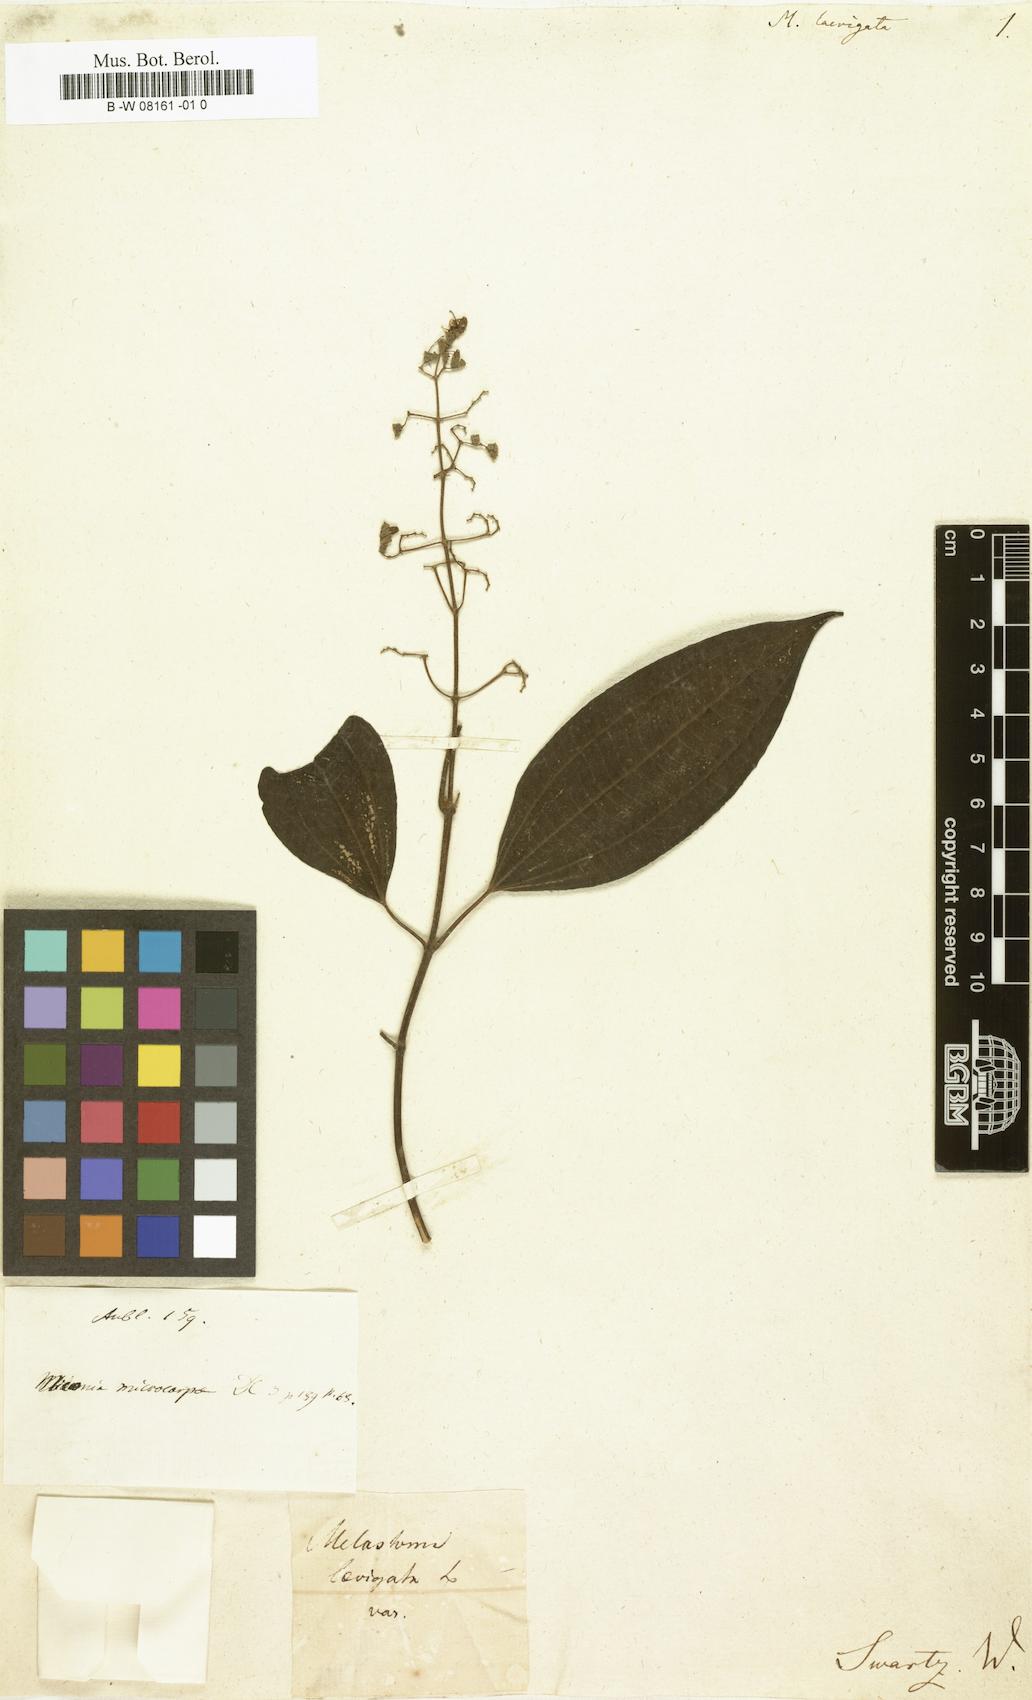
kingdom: Plantae
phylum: Tracheophyta
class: Magnoliopsida
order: Myrtales
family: Melastomataceae
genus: Melastoma
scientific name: Melastoma laevigatum
